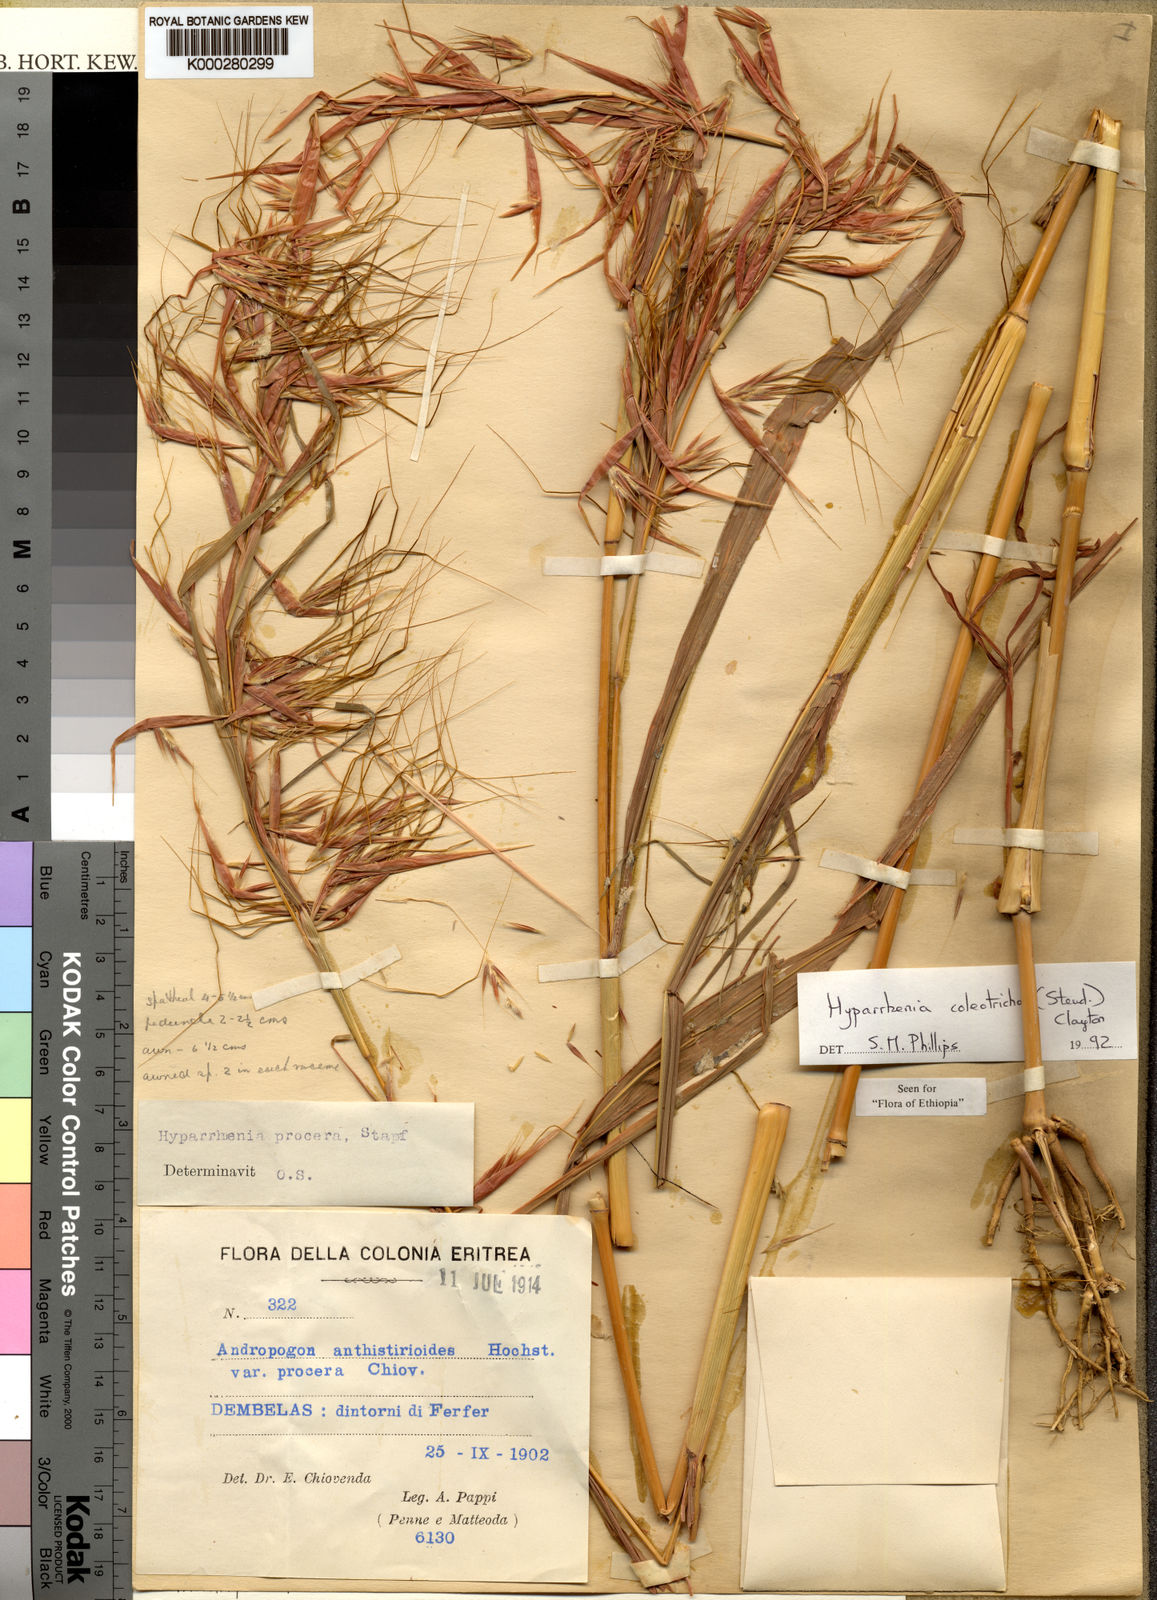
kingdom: Plantae
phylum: Tracheophyta
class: Liliopsida
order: Poales
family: Poaceae
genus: Hyparrhenia
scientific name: Hyparrhenia coleotricha
